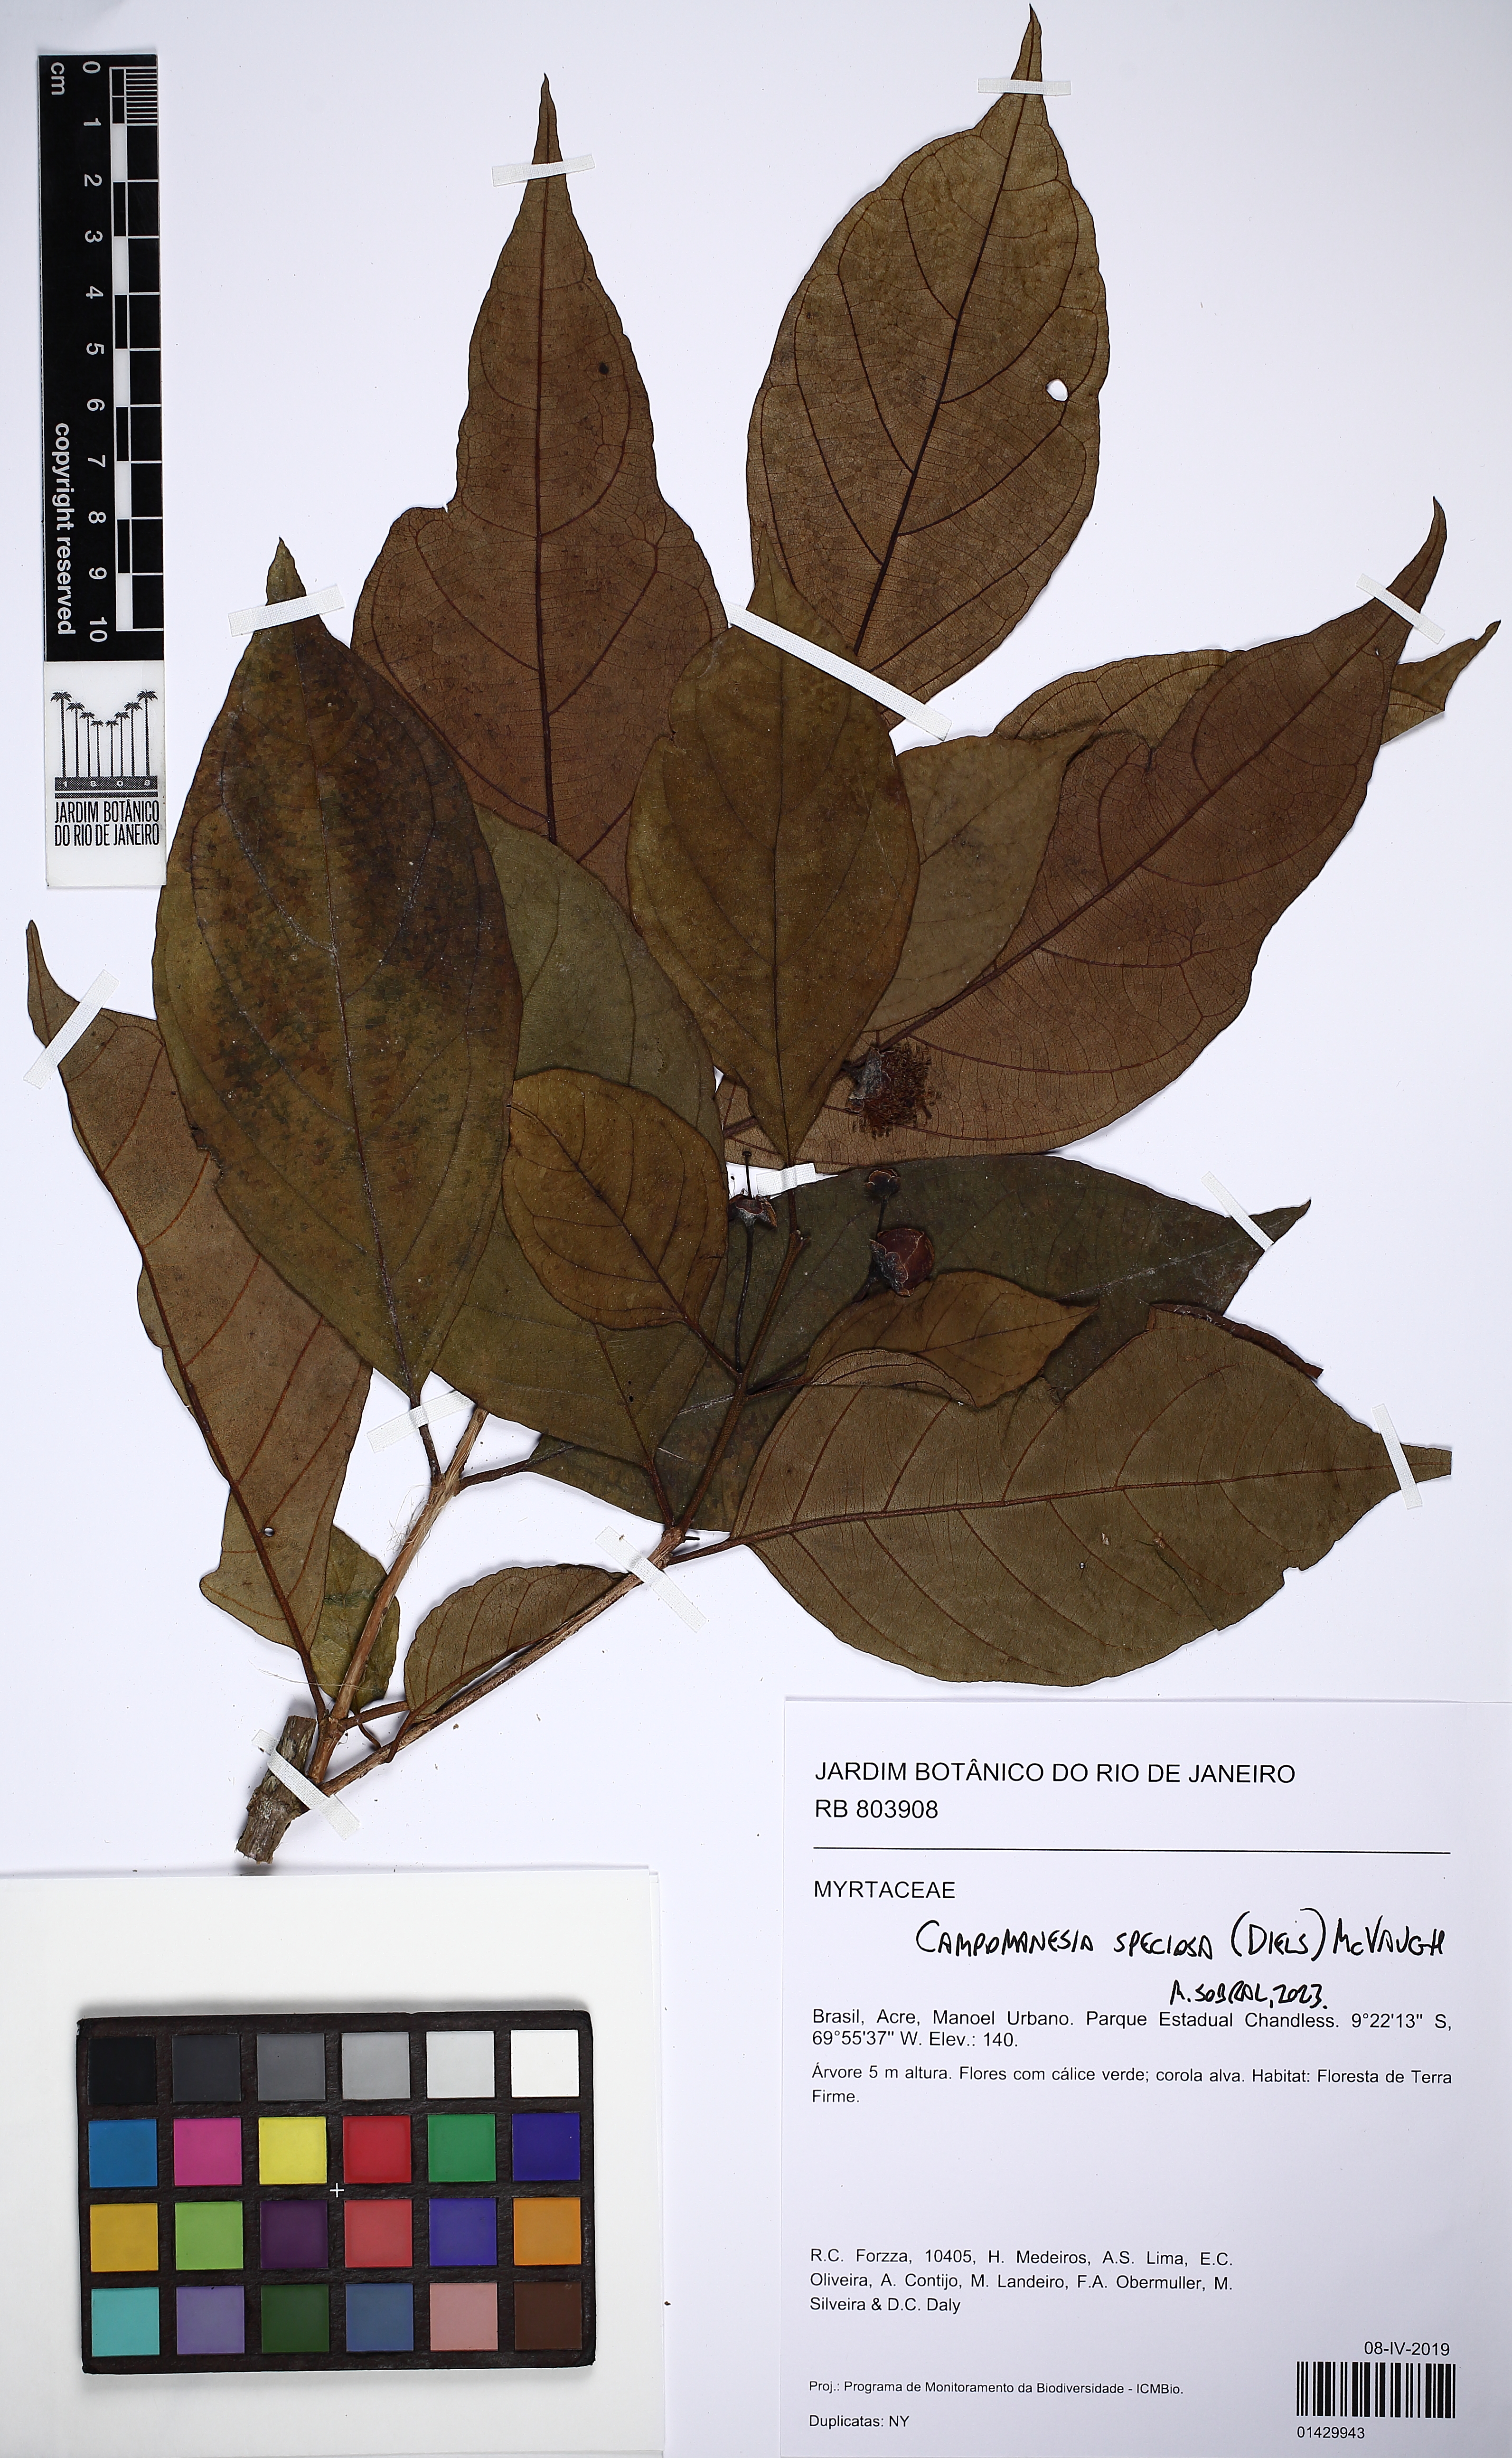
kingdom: Plantae
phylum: Tracheophyta
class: Magnoliopsida
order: Myrtales
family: Myrtaceae
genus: Campomanesia
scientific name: Campomanesia speciosa
